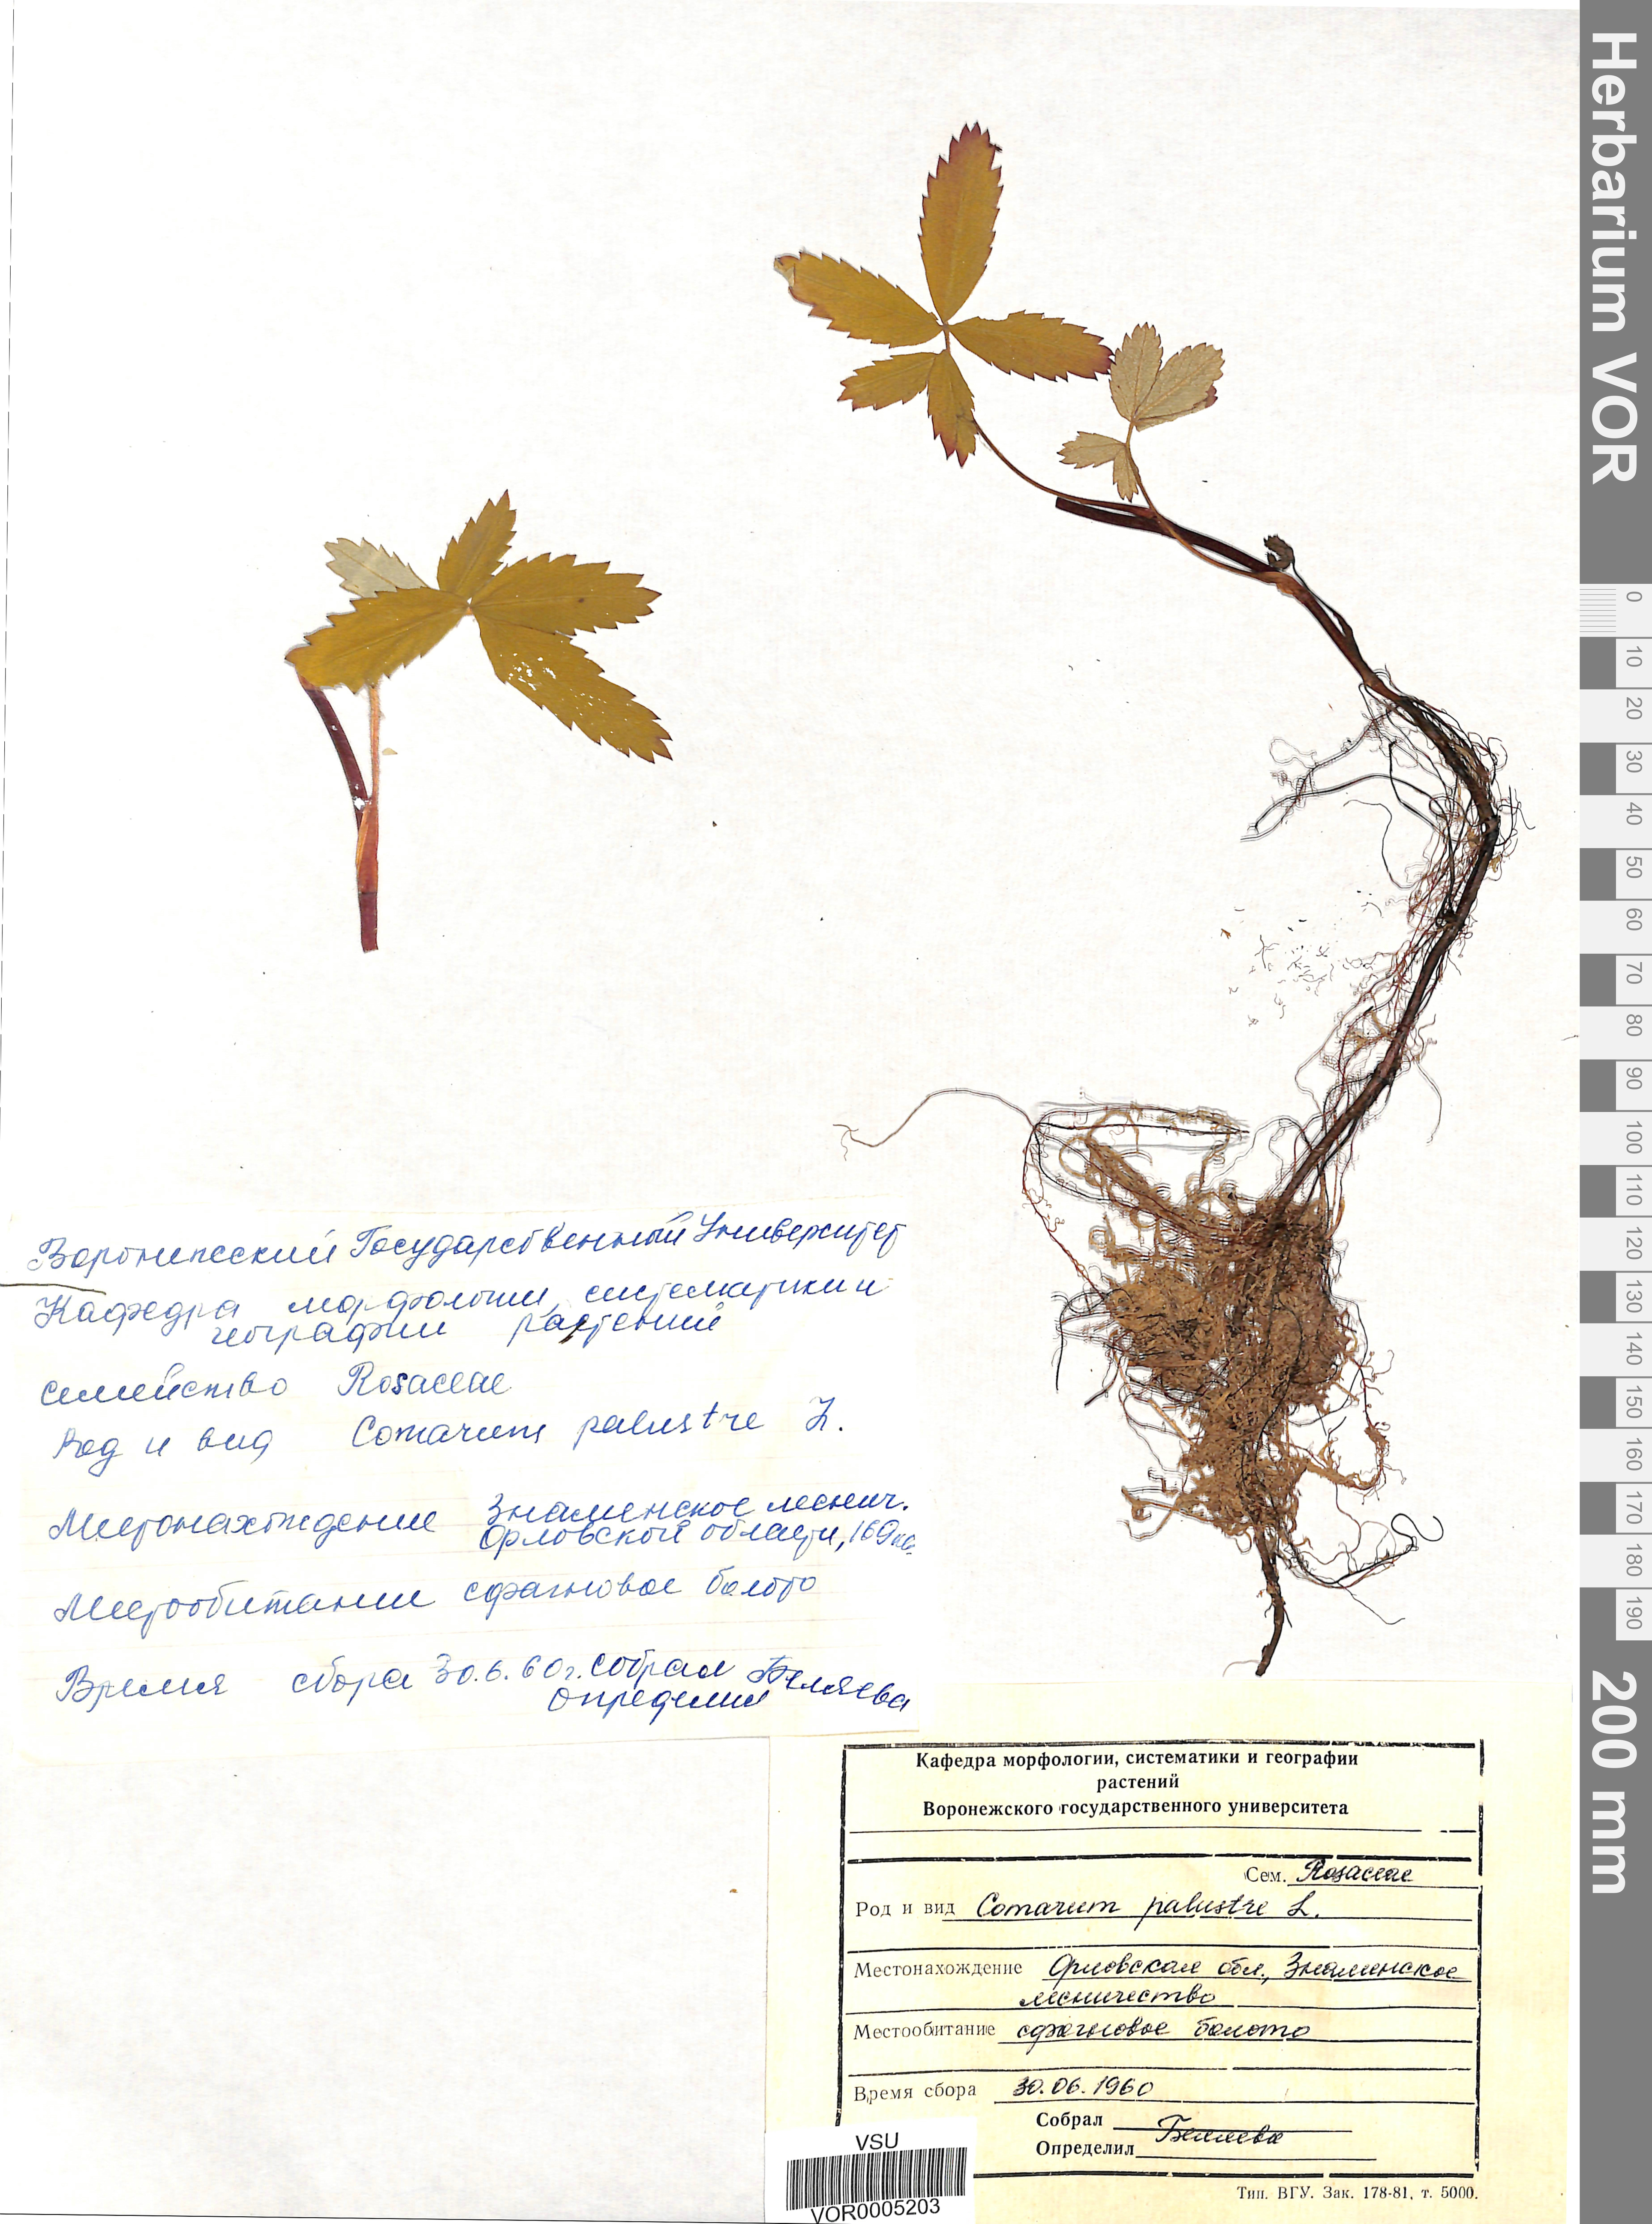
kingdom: Plantae
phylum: Tracheophyta
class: Magnoliopsida
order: Rosales
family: Rosaceae
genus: Comarum
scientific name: Comarum palustre
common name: Marsh cinquefoil
